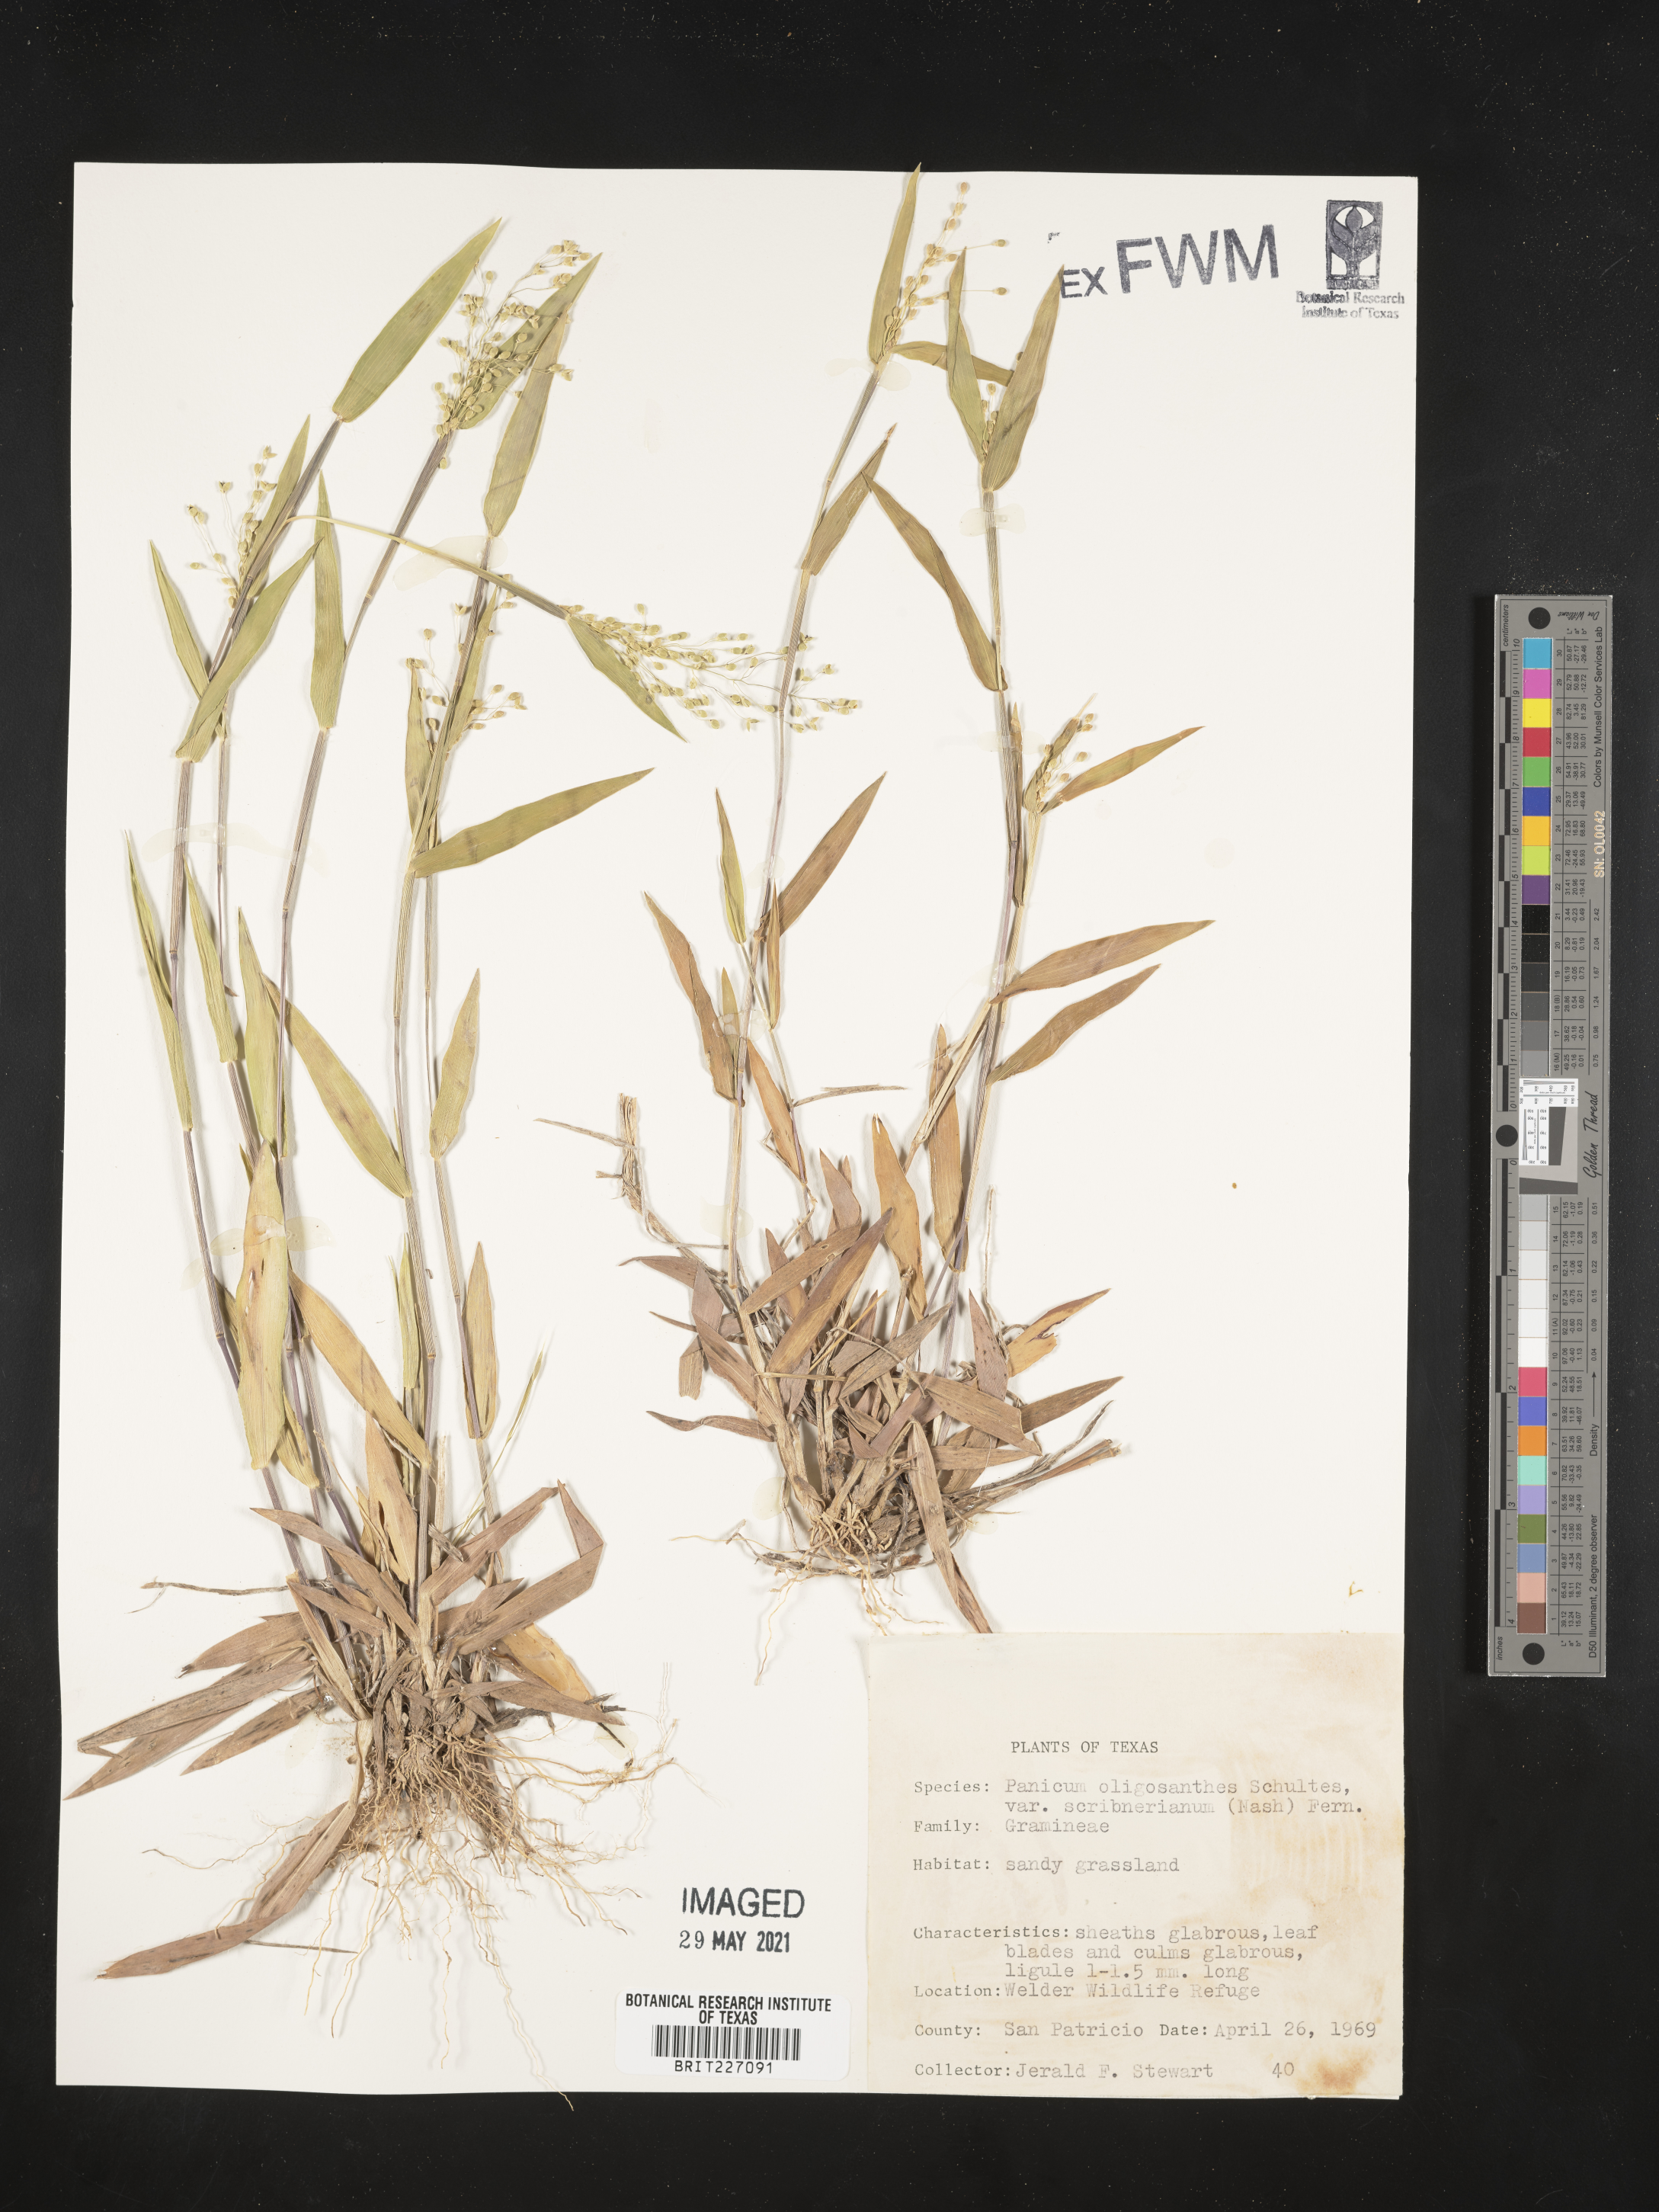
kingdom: Plantae
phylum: Tracheophyta
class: Liliopsida
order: Poales
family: Poaceae
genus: Dichanthelium
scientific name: Dichanthelium scribnerianum
